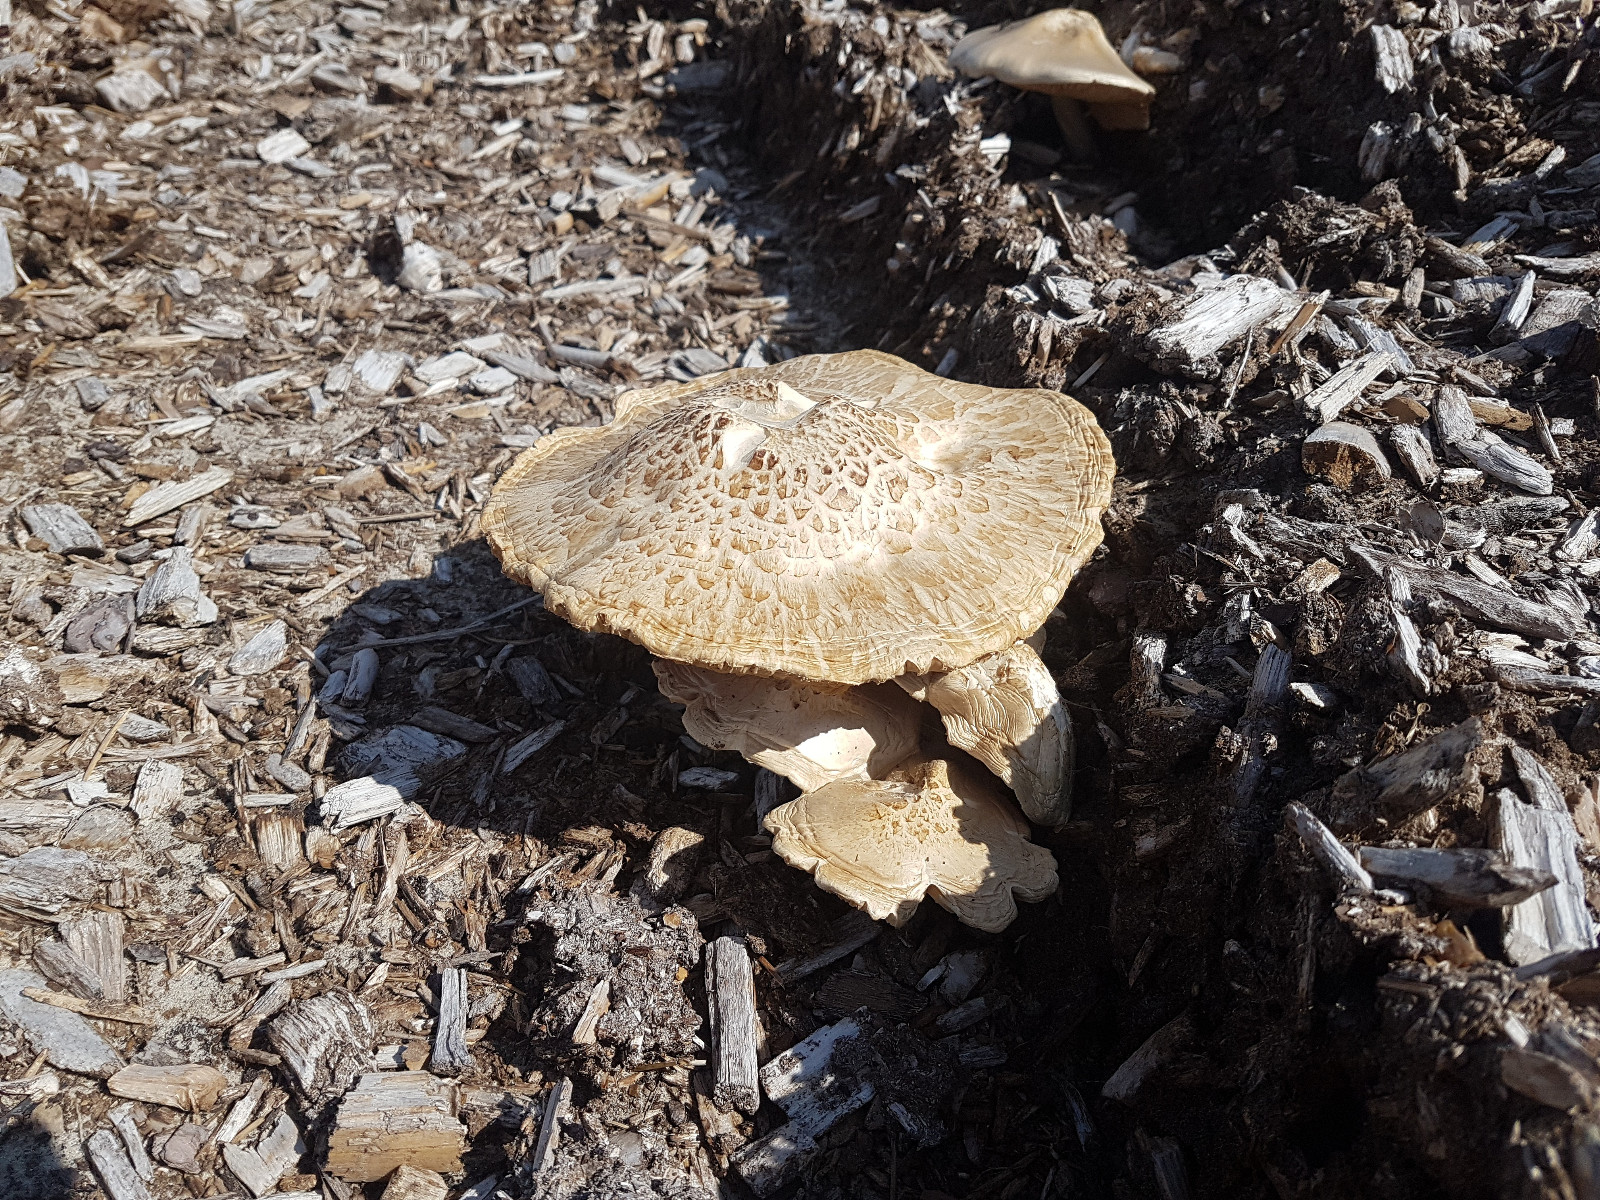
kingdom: Fungi
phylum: Basidiomycota
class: Agaricomycetes
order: Agaricales
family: Pluteaceae
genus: Pluteus
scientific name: Pluteus petasatus
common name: savsmulds-skærmhat
